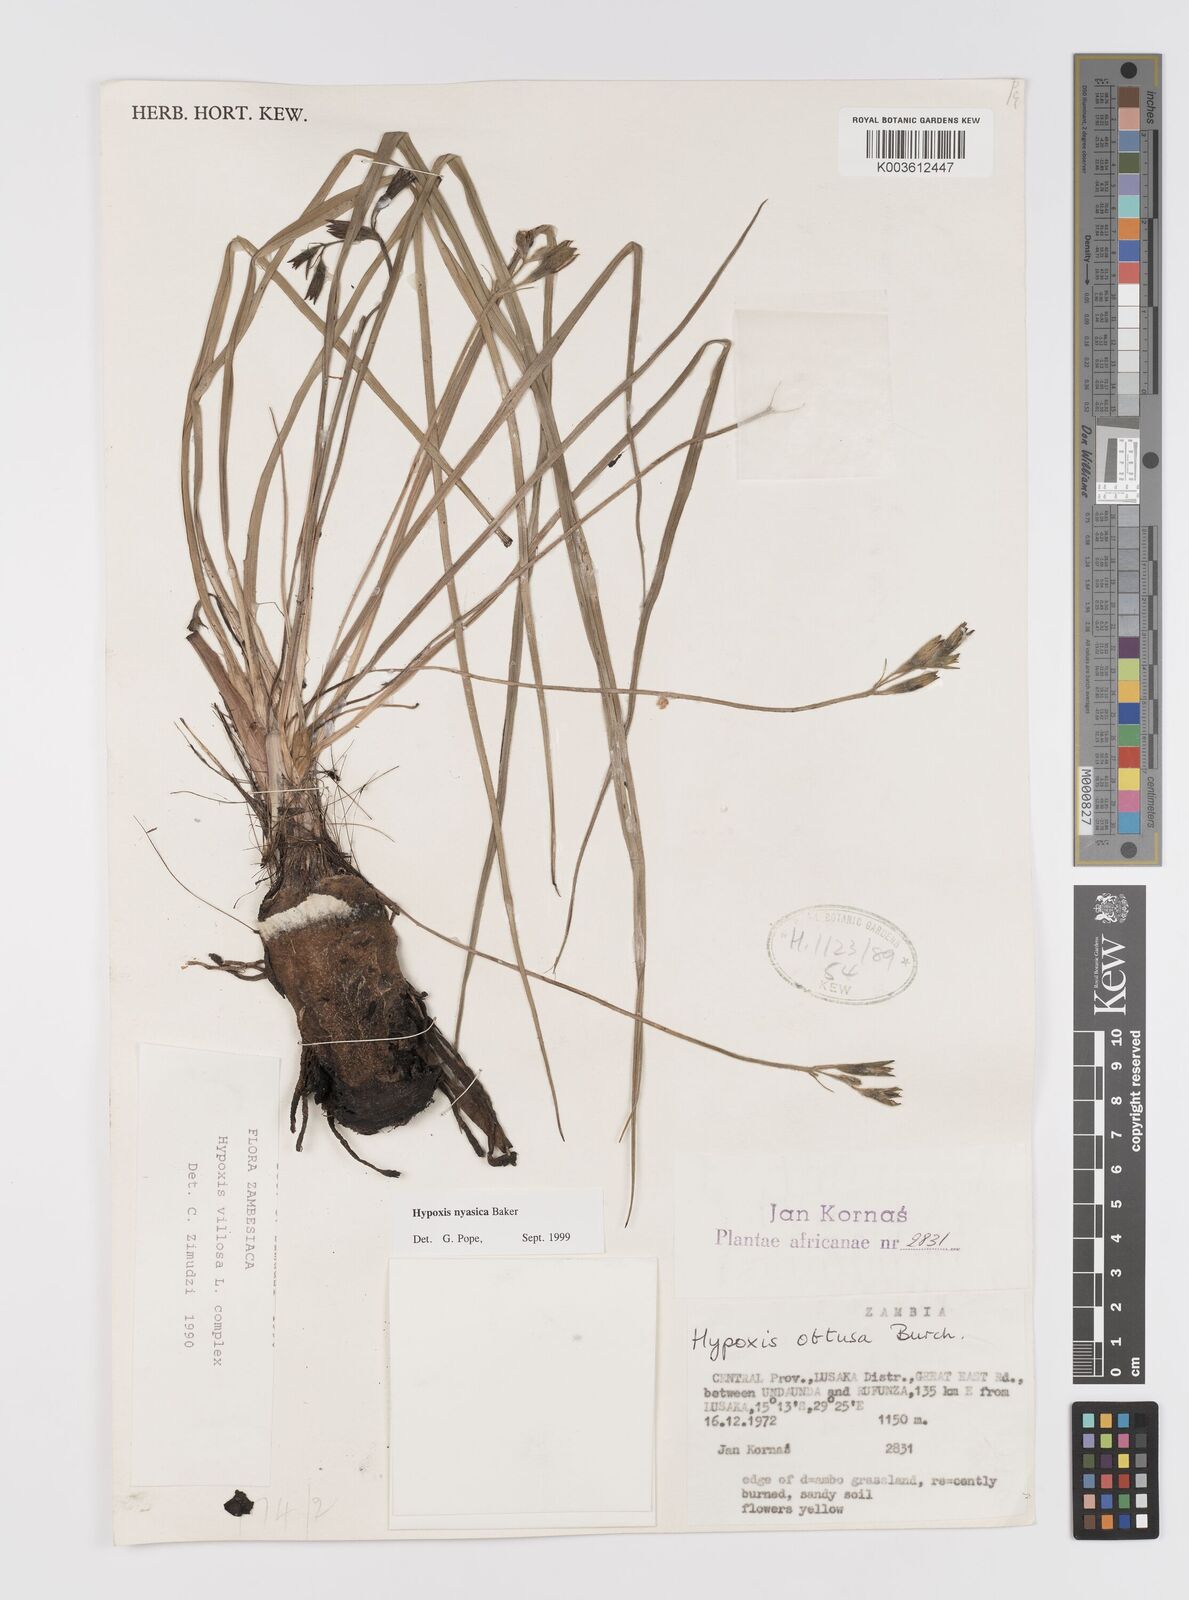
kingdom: Plantae
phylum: Tracheophyta
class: Liliopsida
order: Asparagales
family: Hypoxidaceae
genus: Hypoxis
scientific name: Hypoxis nyasica
